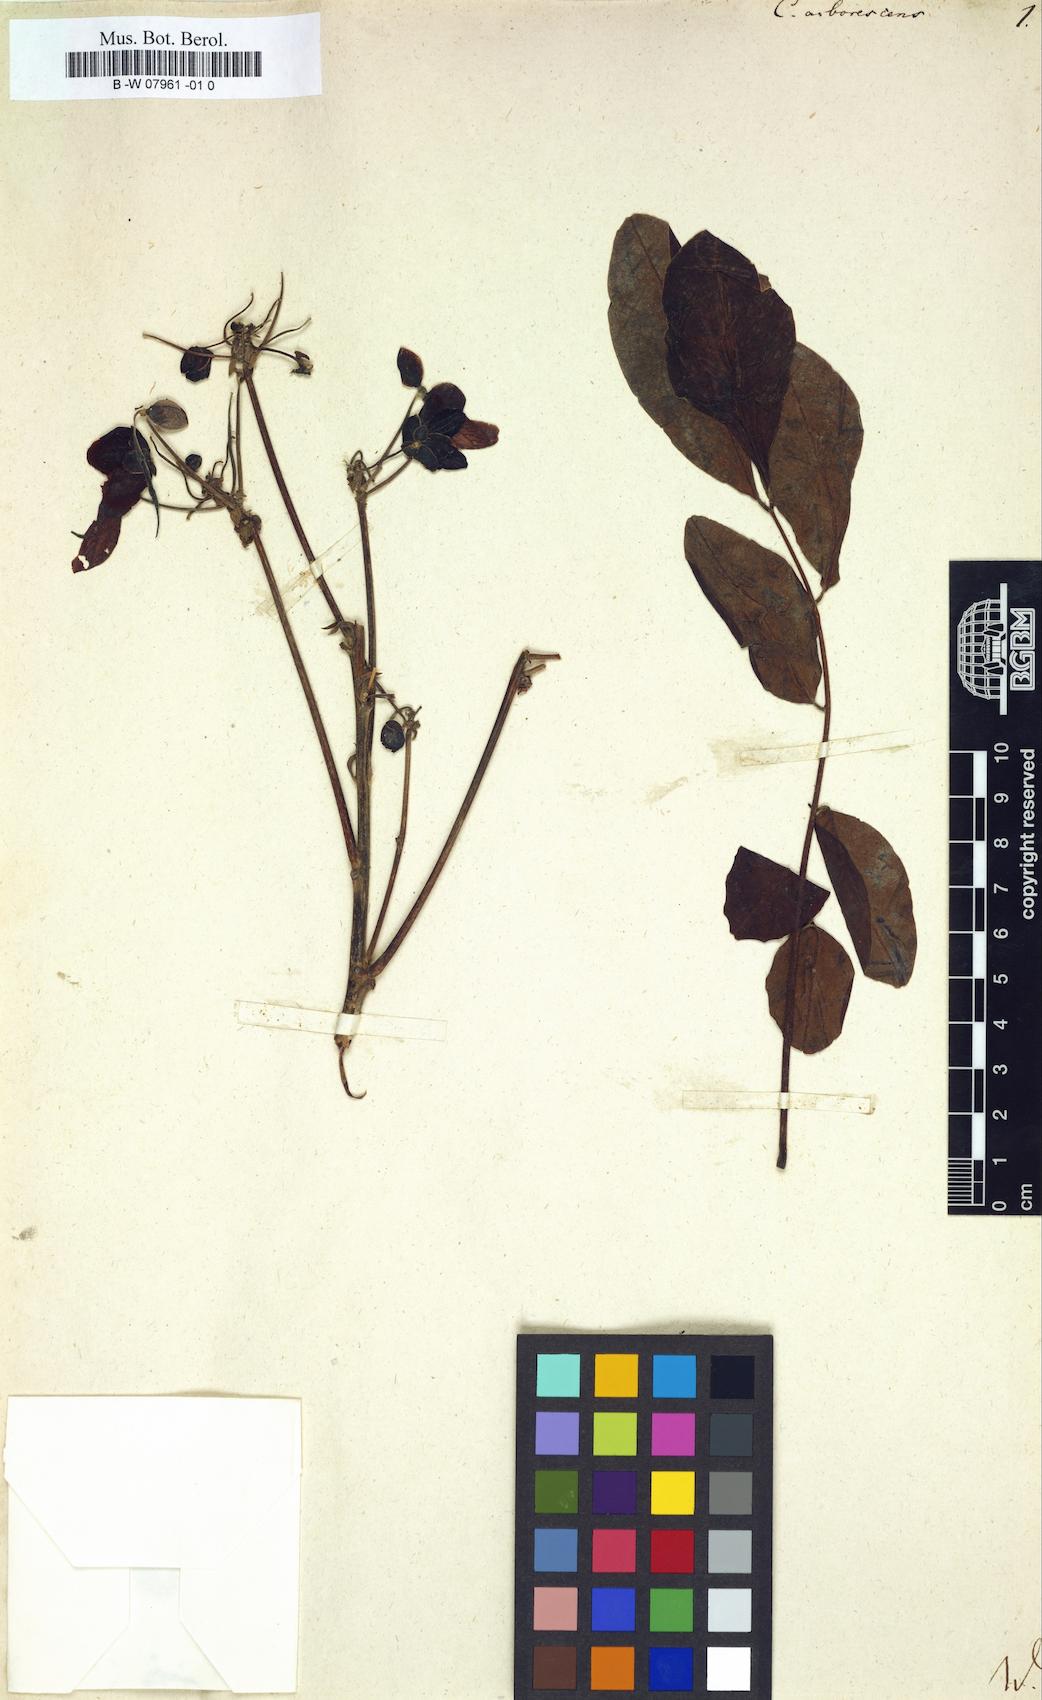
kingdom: Plantae
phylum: Tracheophyta
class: Magnoliopsida
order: Fabales
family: Fabaceae
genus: Cassia
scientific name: Cassia arborescens
